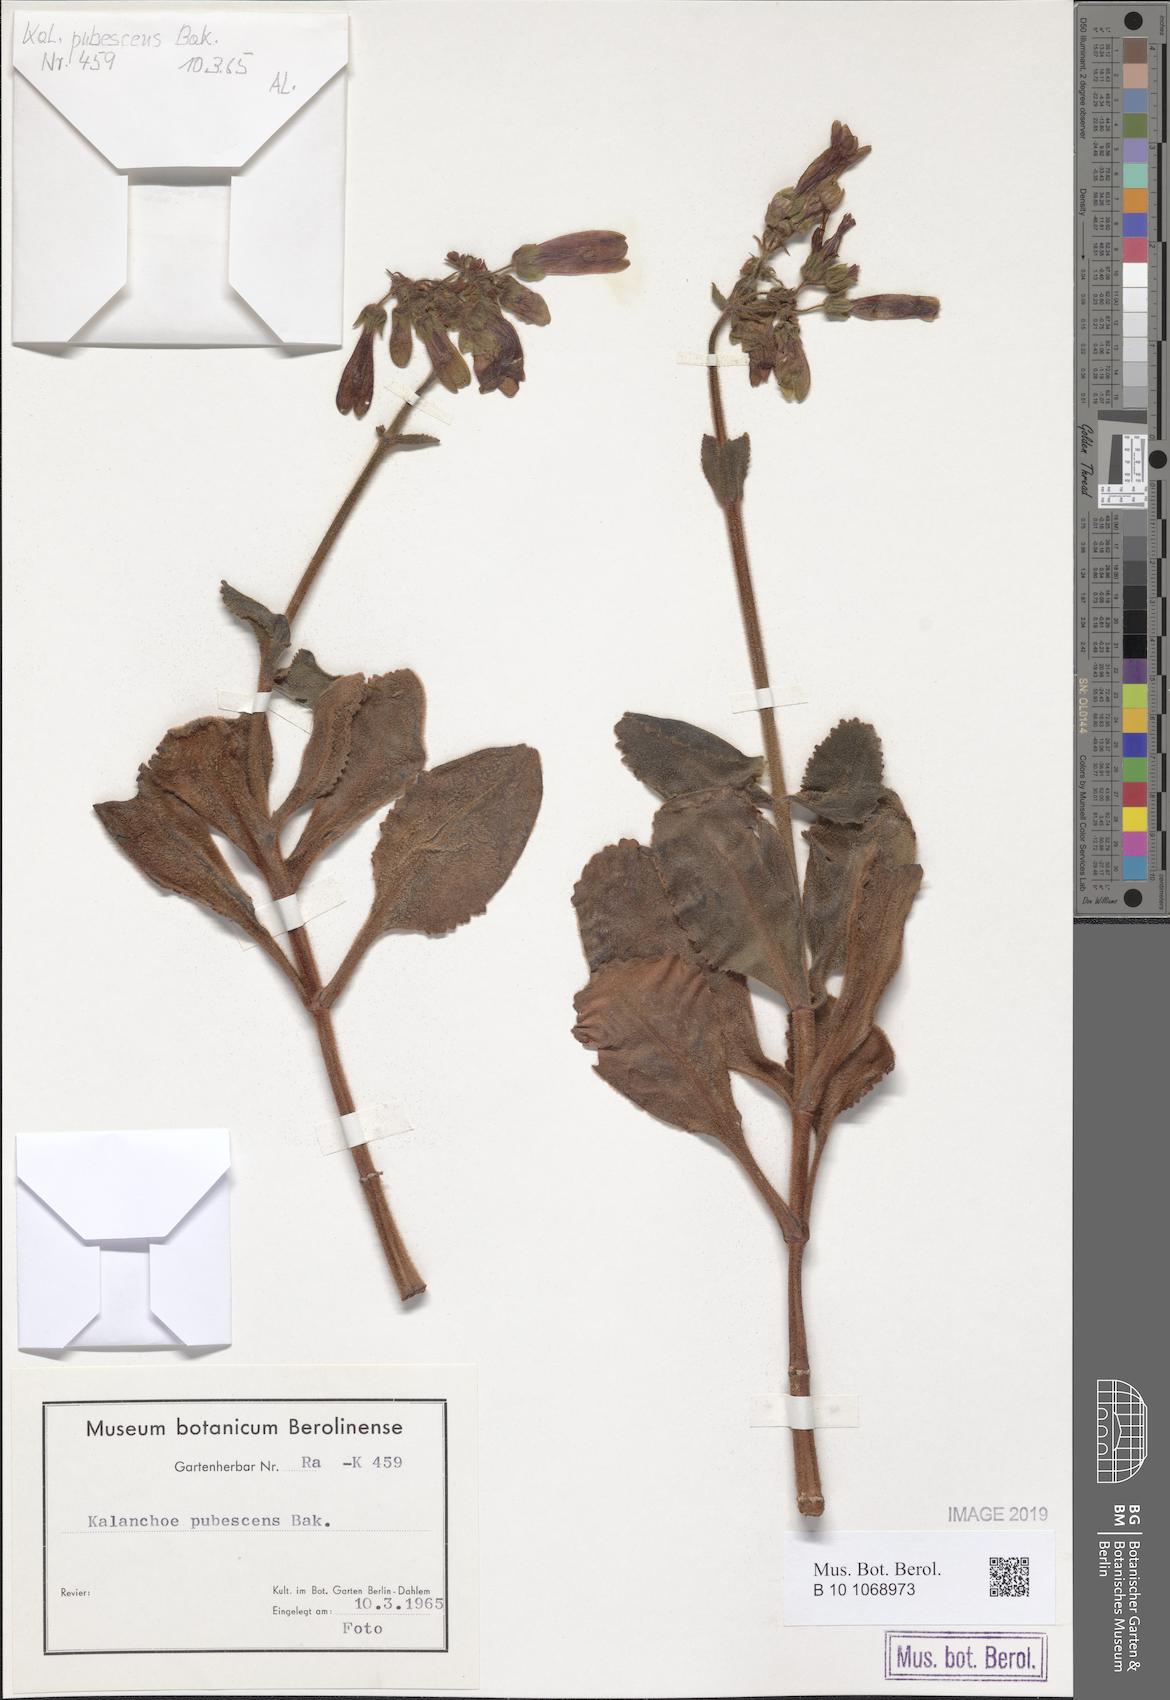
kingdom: Plantae
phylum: Tracheophyta
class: Magnoliopsida
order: Saxifragales
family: Crassulaceae
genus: Kalanchoe
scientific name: Kalanchoe pubescens
